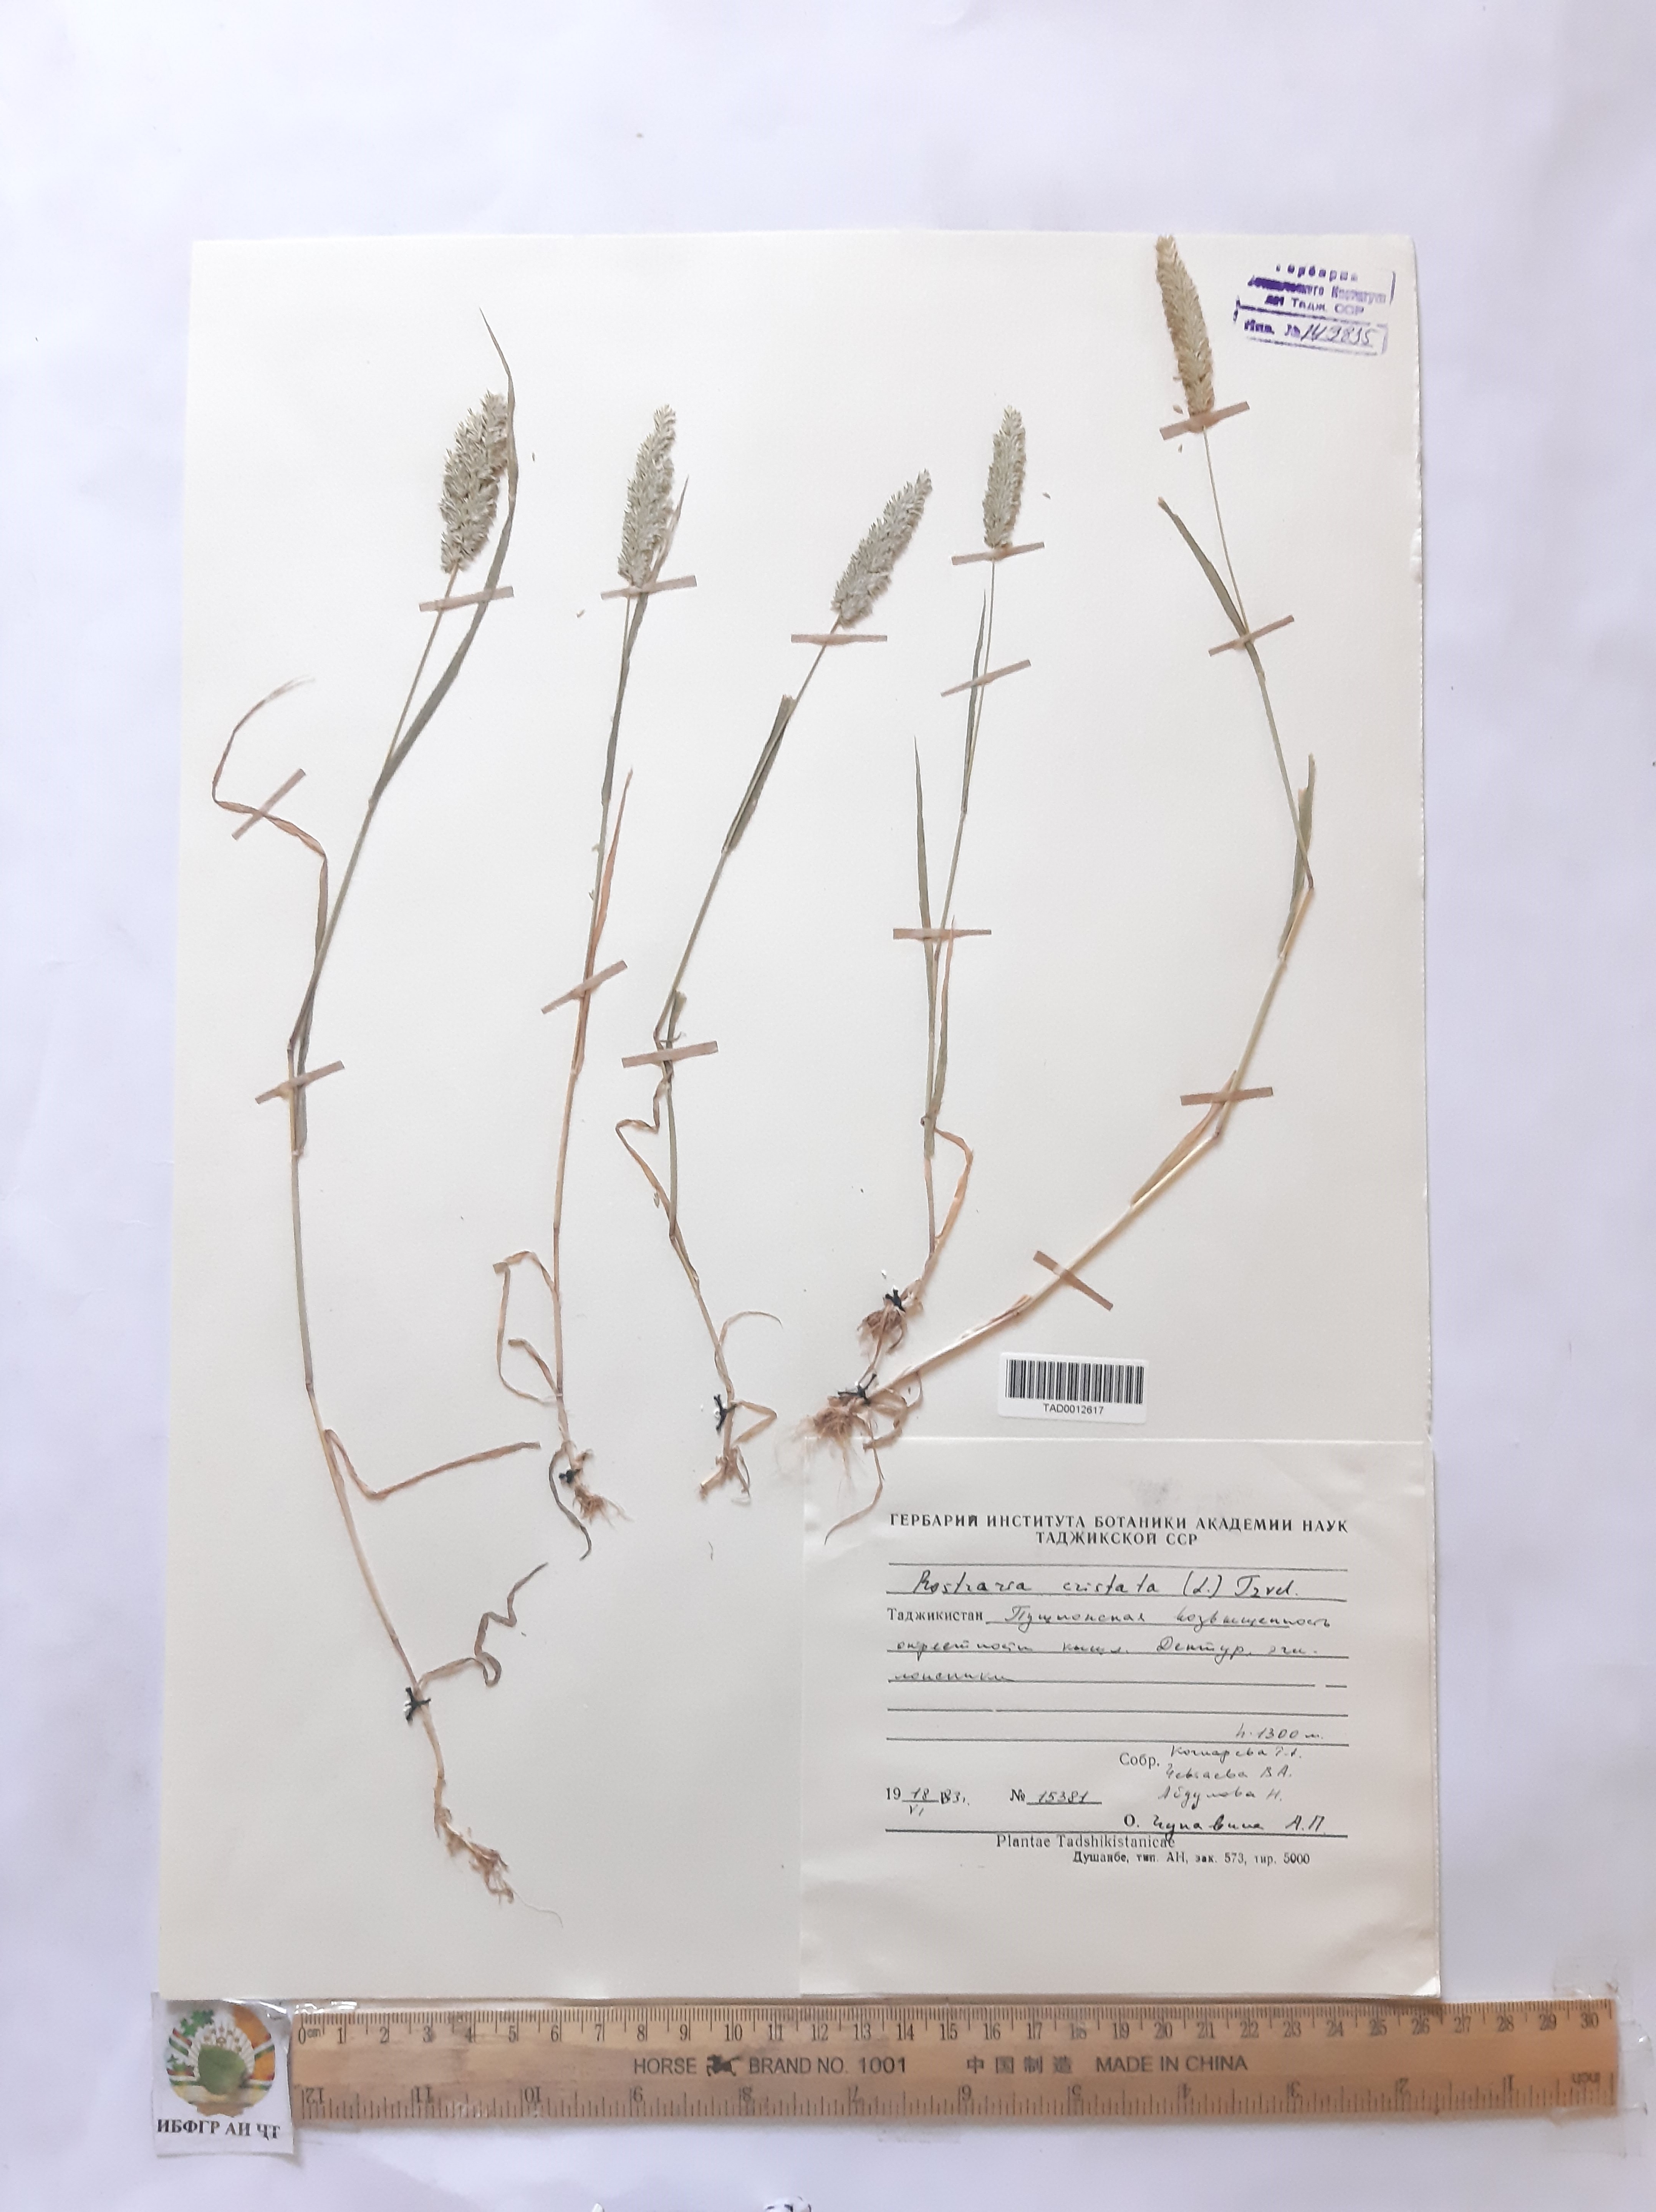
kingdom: Plantae
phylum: Tracheophyta
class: Liliopsida
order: Poales
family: Poaceae
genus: Rostraria
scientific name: Rostraria cristata
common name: Mediterranean hair-grass
